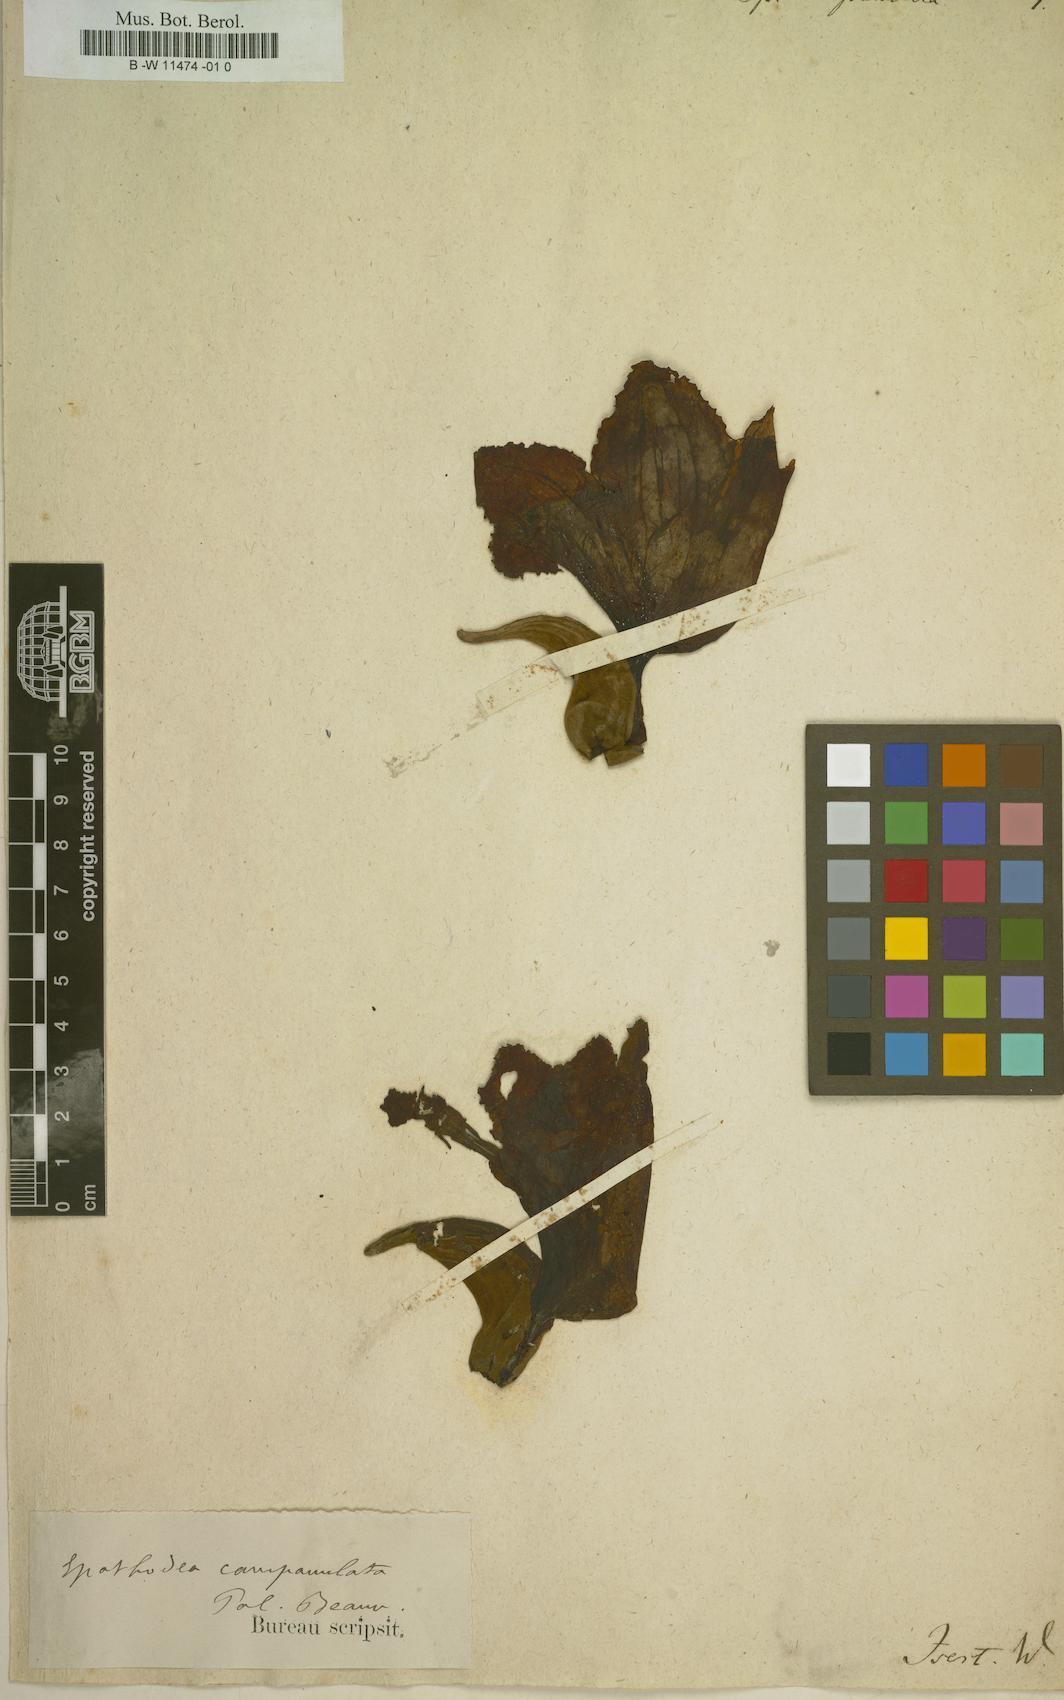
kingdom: Plantae
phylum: Tracheophyta
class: Magnoliopsida
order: Lamiales
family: Bignoniaceae
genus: Spathodea
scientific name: Spathodea campanulata
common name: African tuliptree
